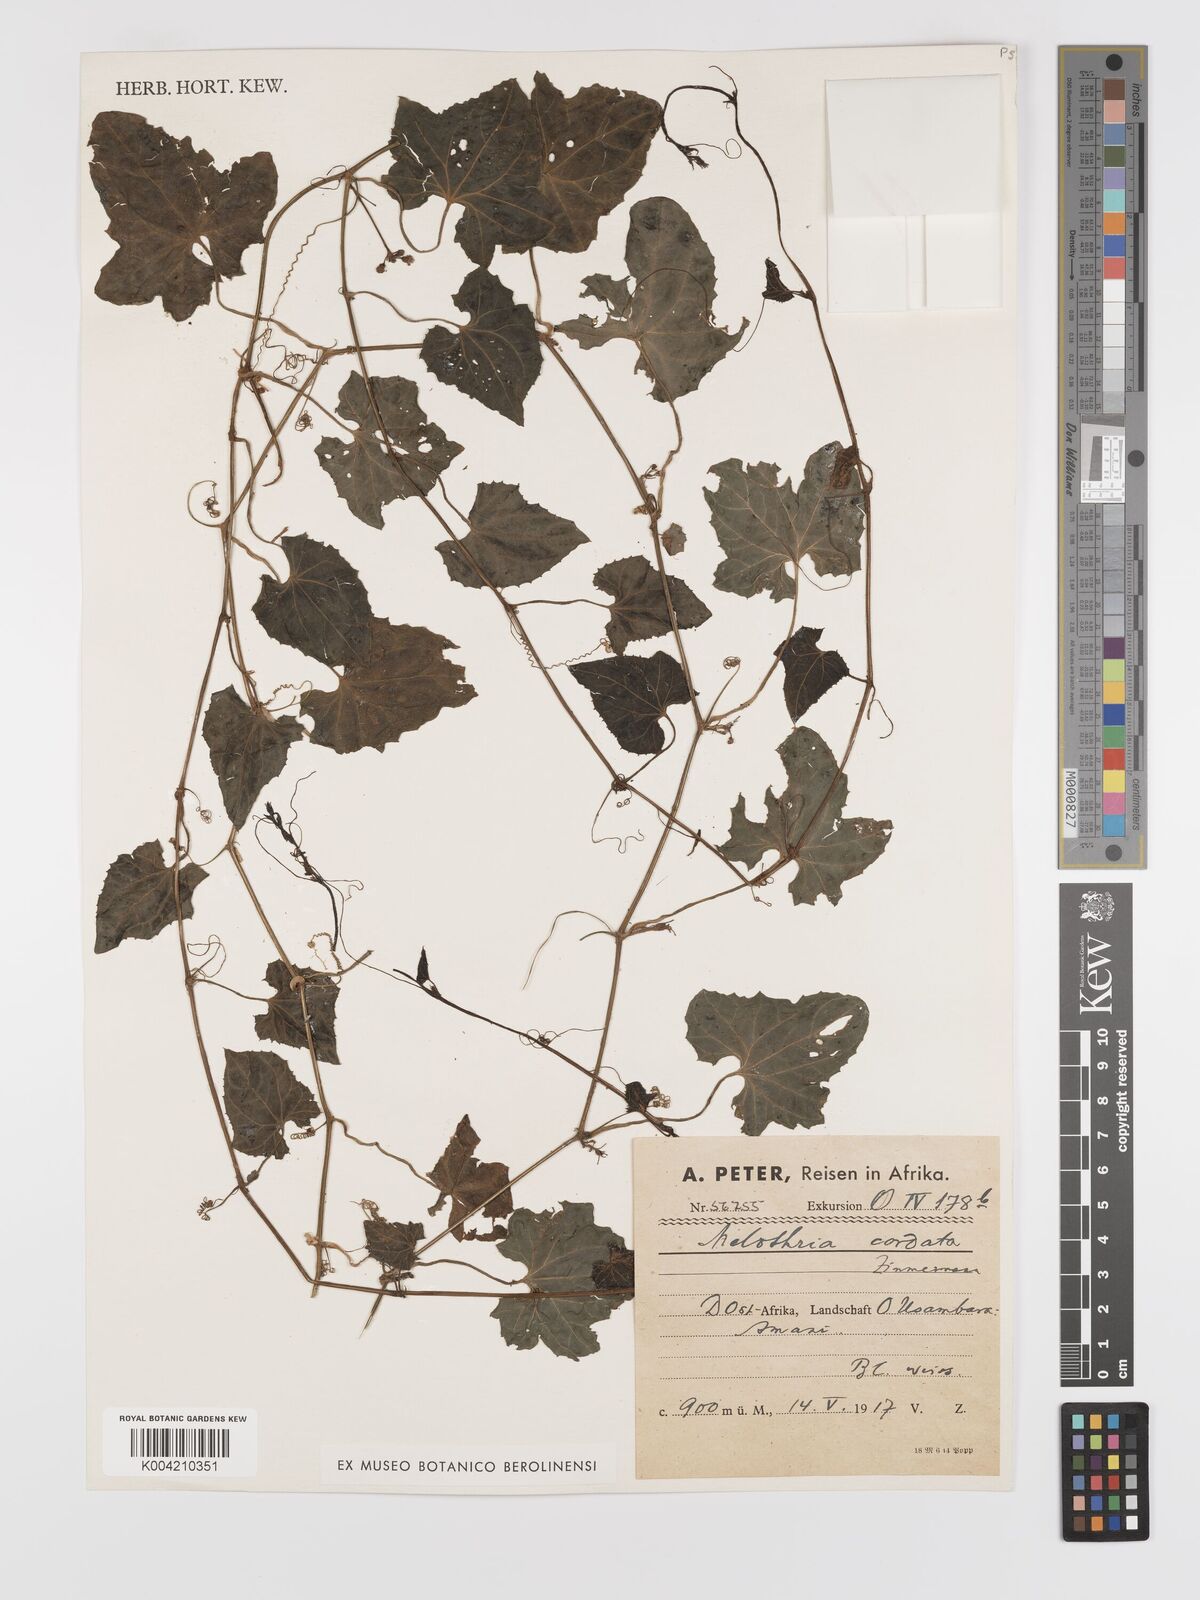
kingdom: Plantae
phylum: Tracheophyta
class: Magnoliopsida
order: Cucurbitales
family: Cucurbitaceae
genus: Zehneria
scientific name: Zehneria emirnensis
